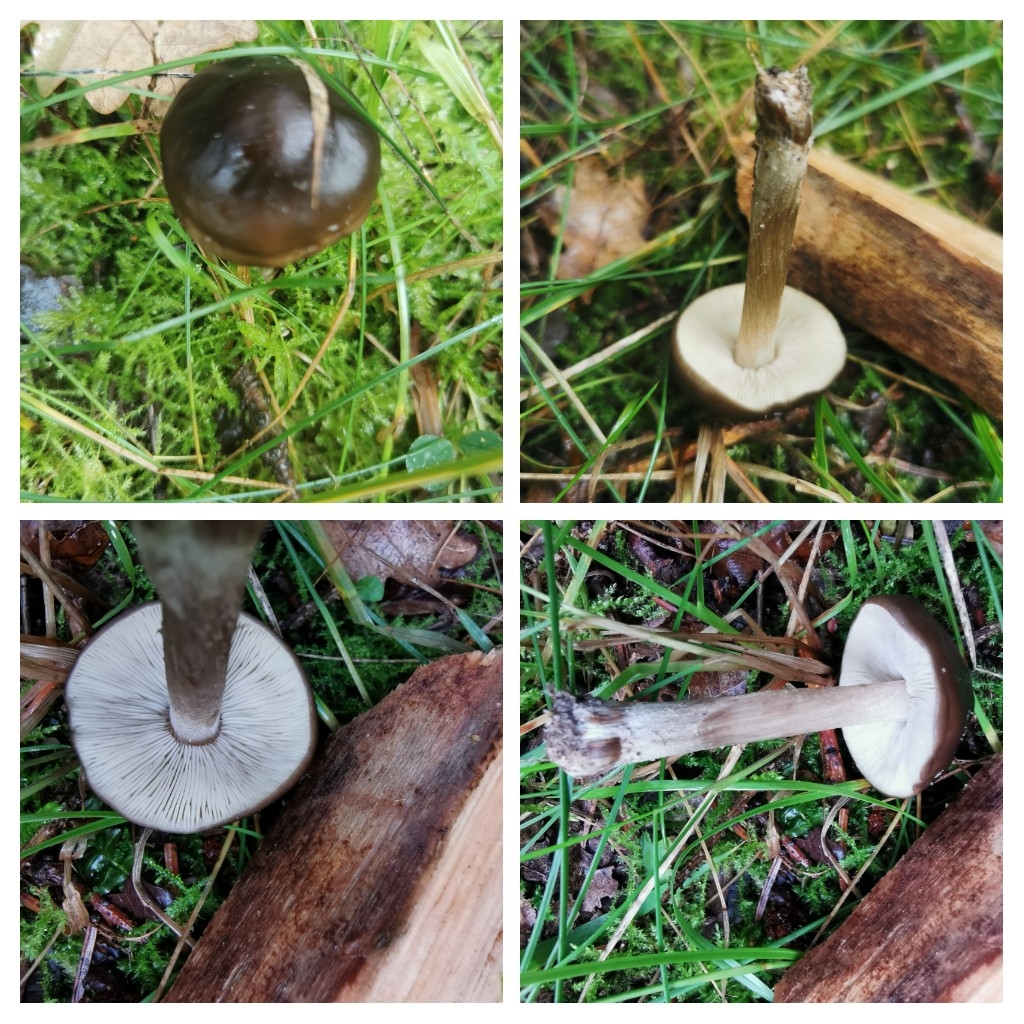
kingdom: Fungi
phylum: Basidiomycota
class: Agaricomycetes
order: Agaricales
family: Tricholomataceae
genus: Melanoleuca
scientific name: Melanoleuca
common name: munkehat
